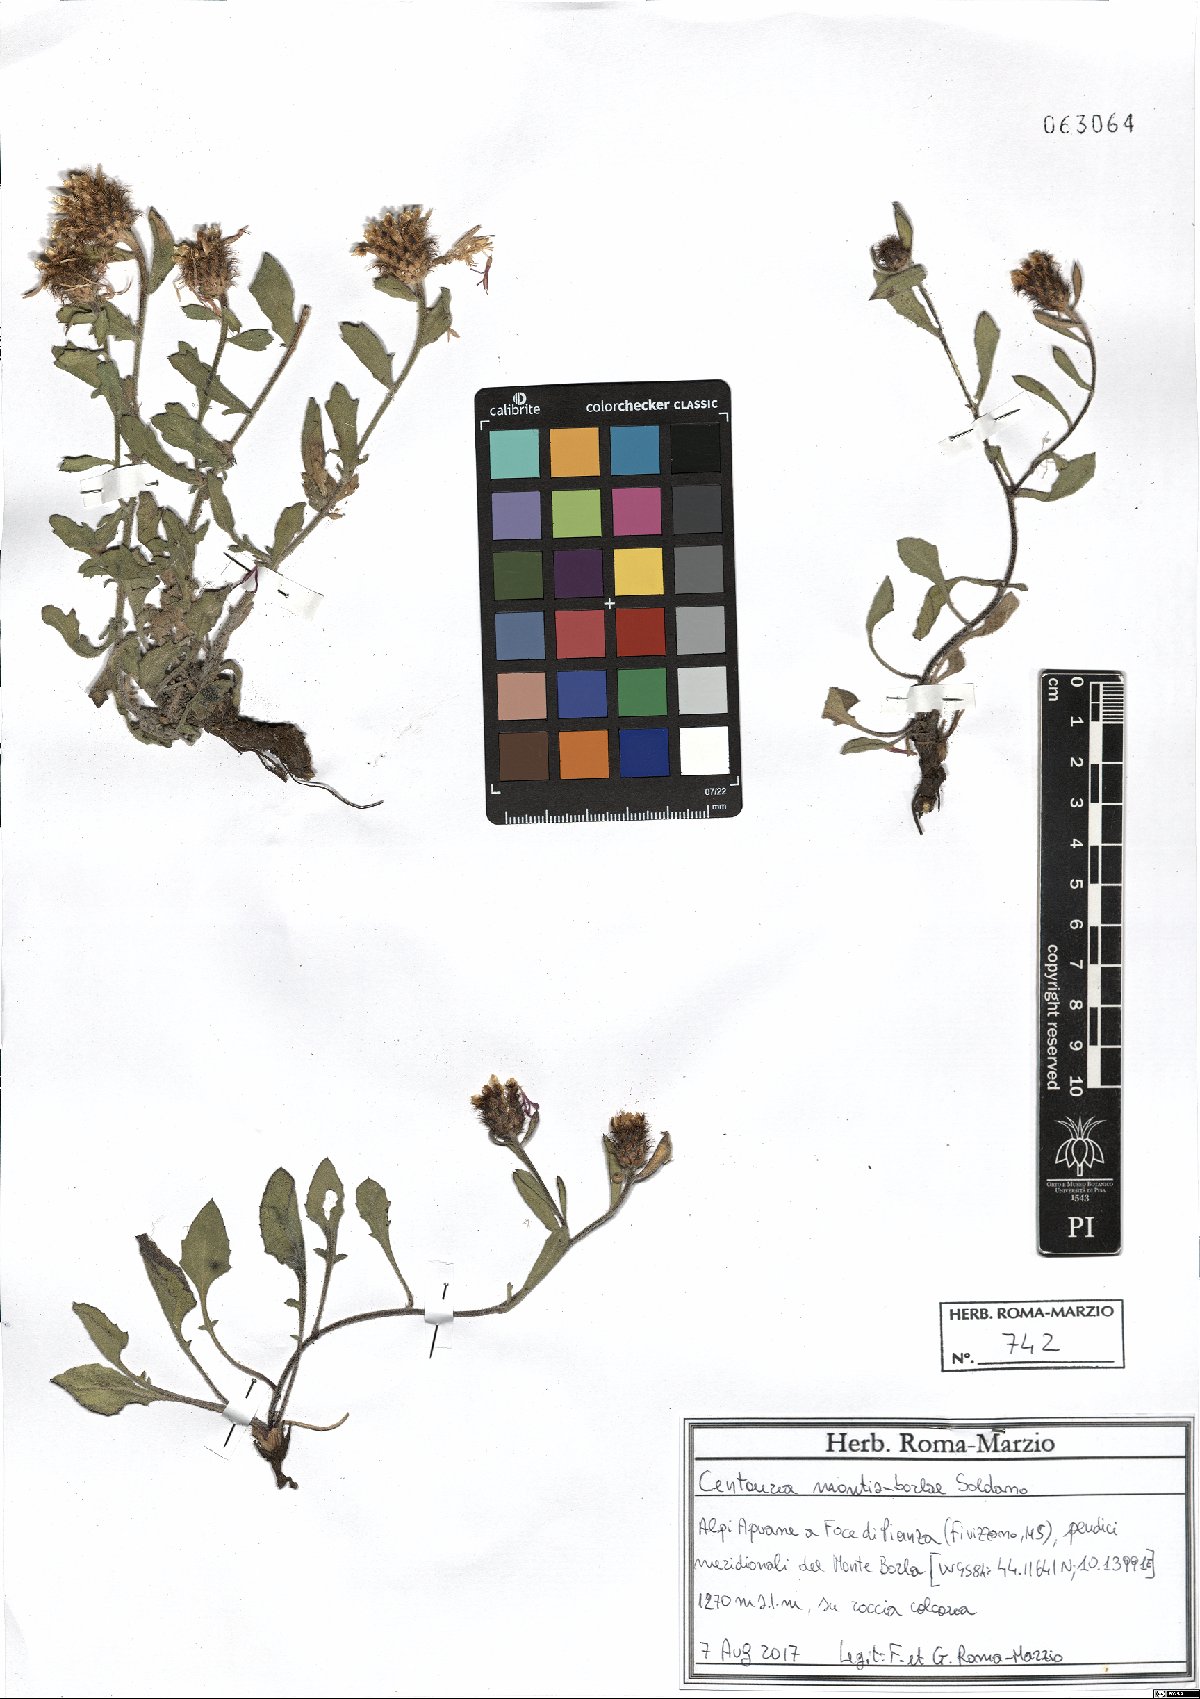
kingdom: Plantae
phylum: Tracheophyta
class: Magnoliopsida
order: Asterales
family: Asteraceae
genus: Centaurea
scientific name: Centaurea montis-borlae
